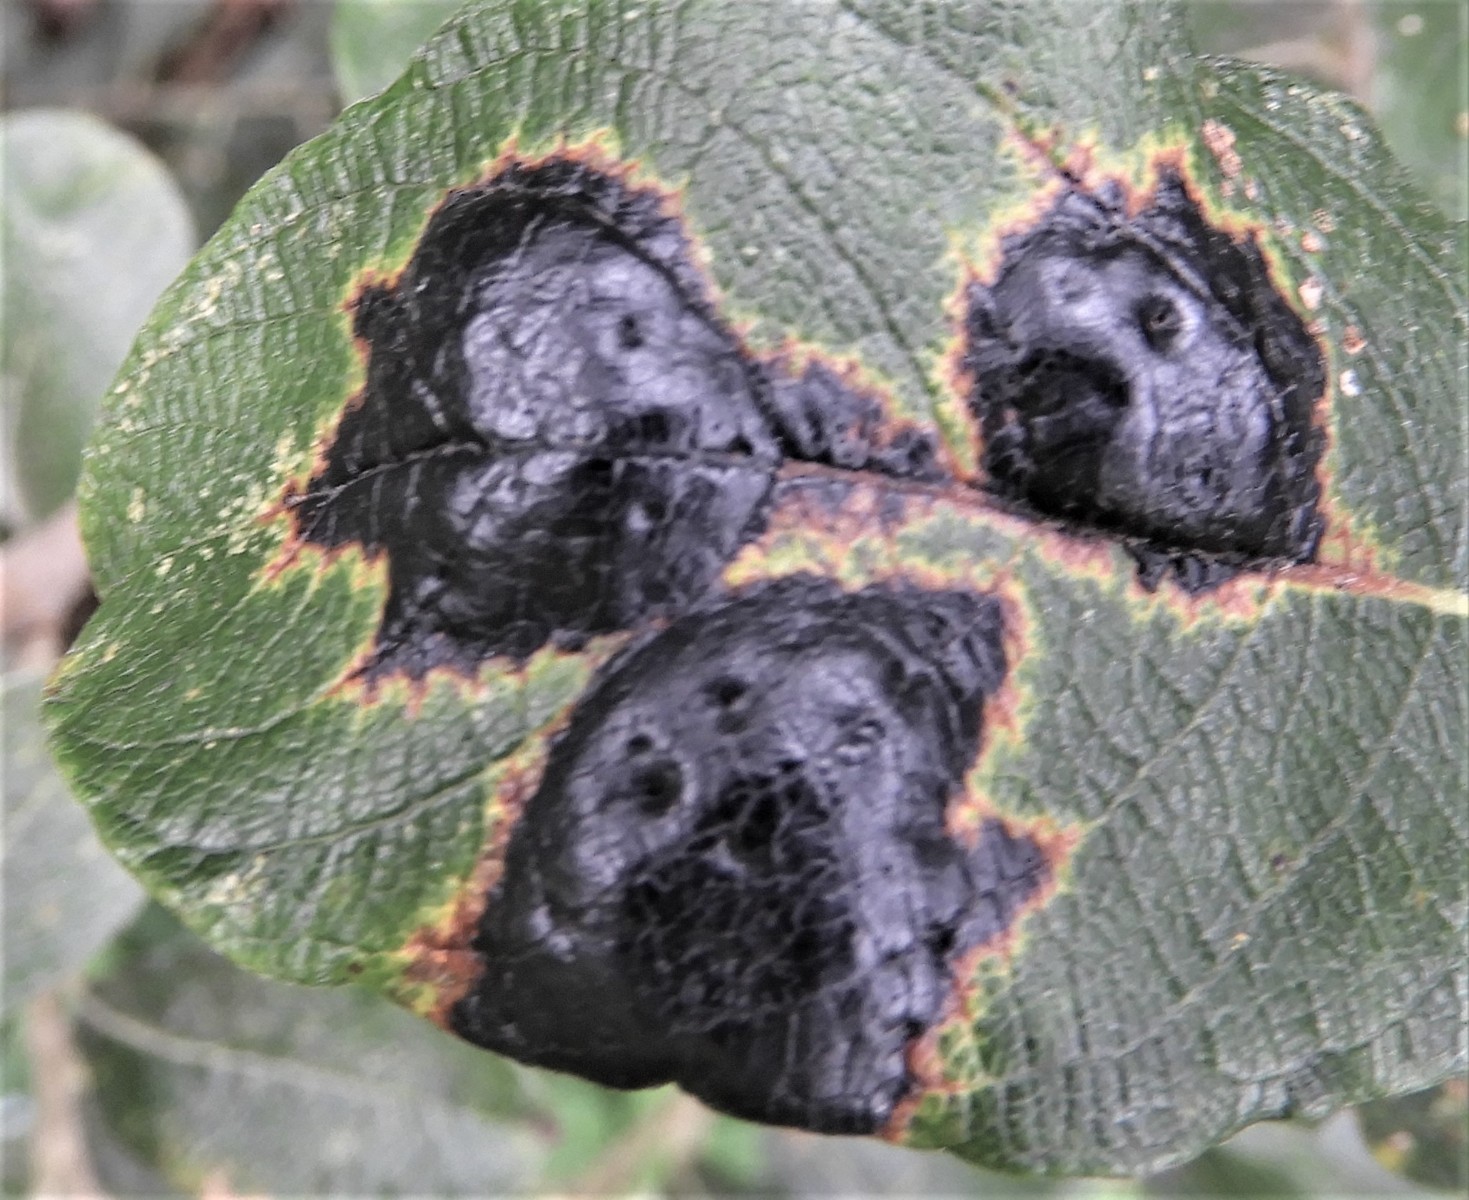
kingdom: Fungi
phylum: Ascomycota
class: Leotiomycetes
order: Rhytismatales
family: Rhytismataceae
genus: Rhytisma
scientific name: Rhytisma salicinum
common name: pile-rynkeplet
